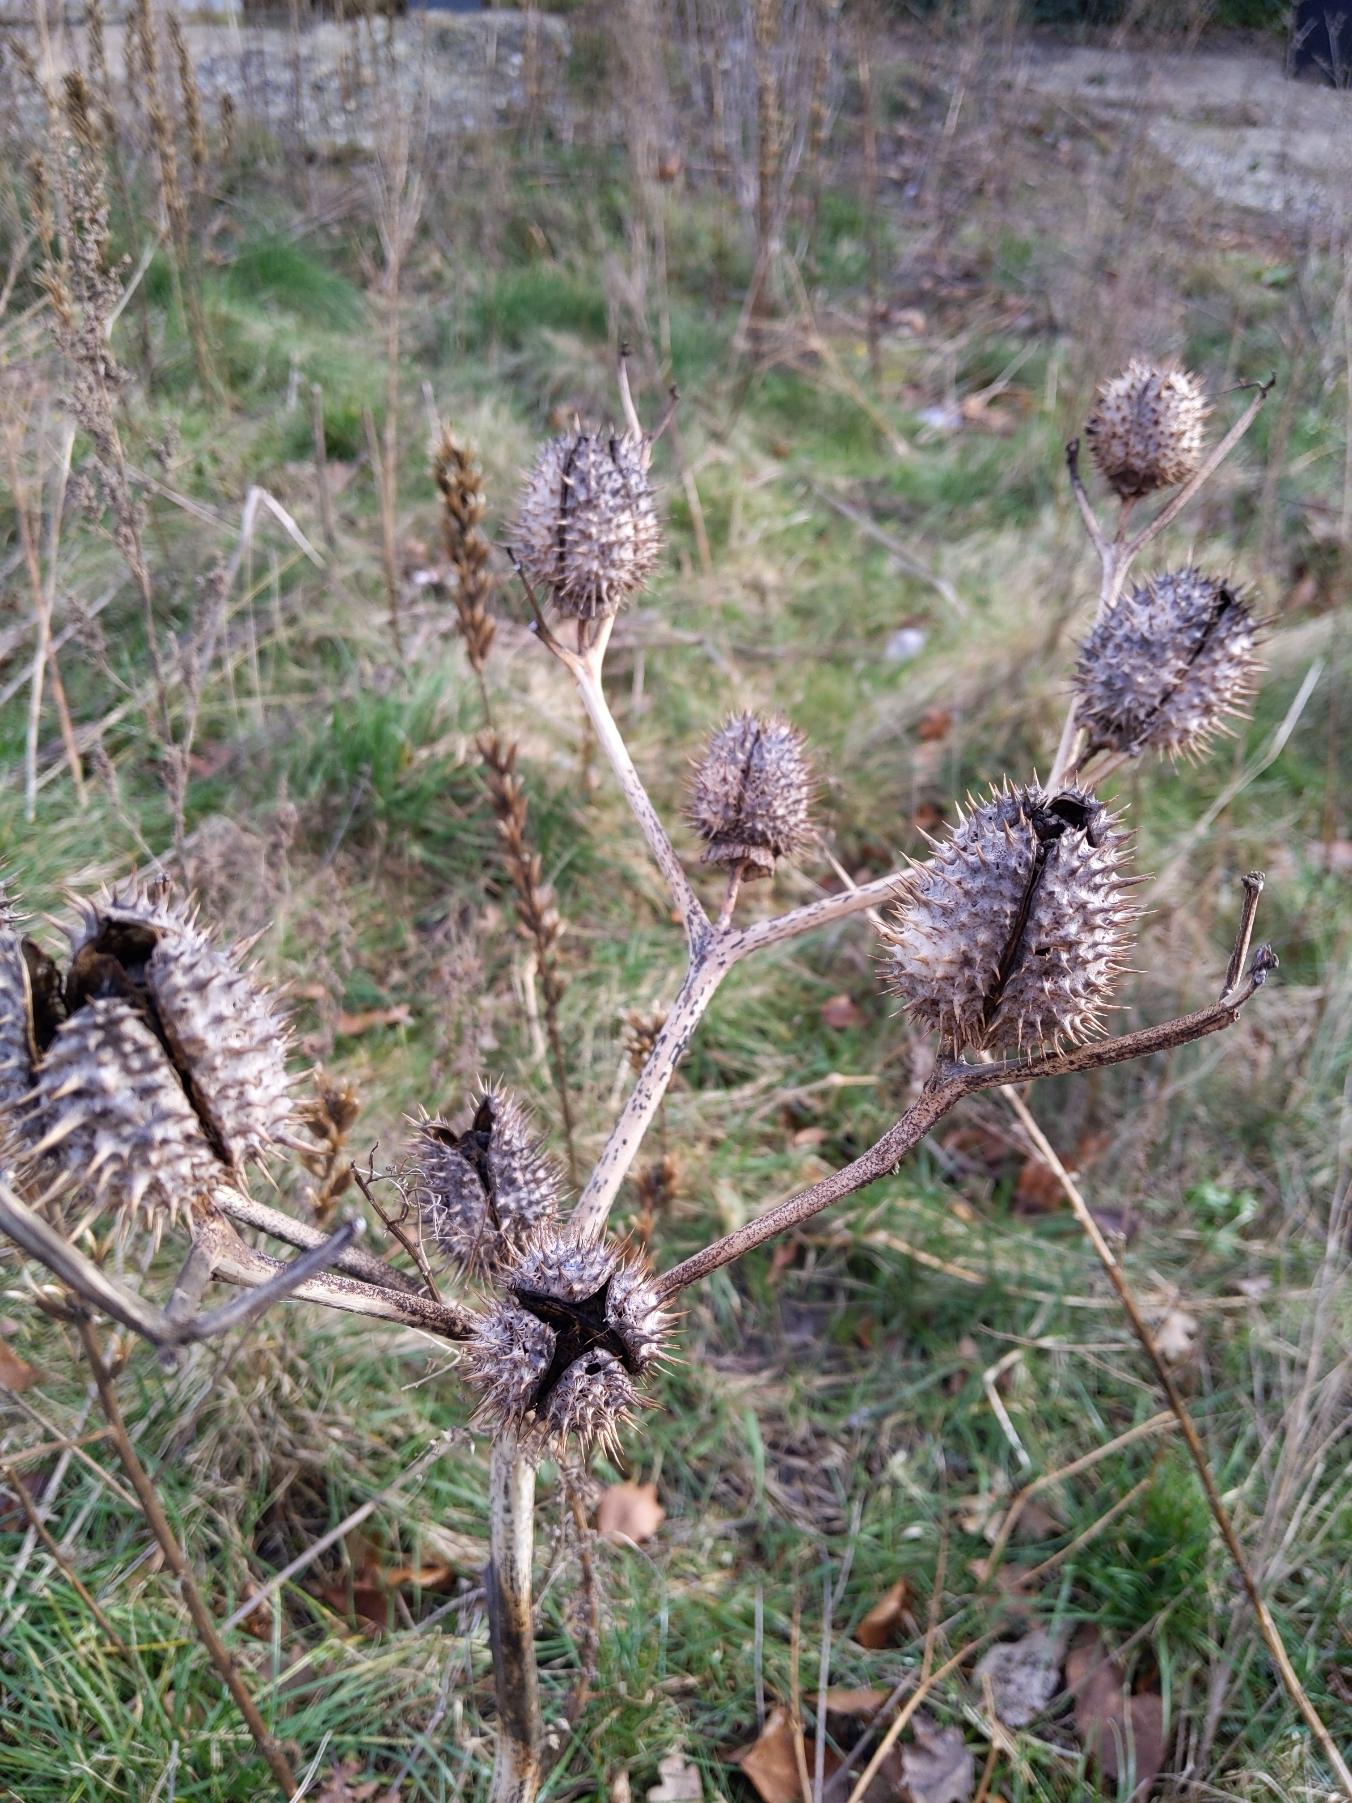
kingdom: Plantae
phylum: Tracheophyta
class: Magnoliopsida
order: Solanales
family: Solanaceae
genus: Datura
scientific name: Datura stramonium
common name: Pigæble
